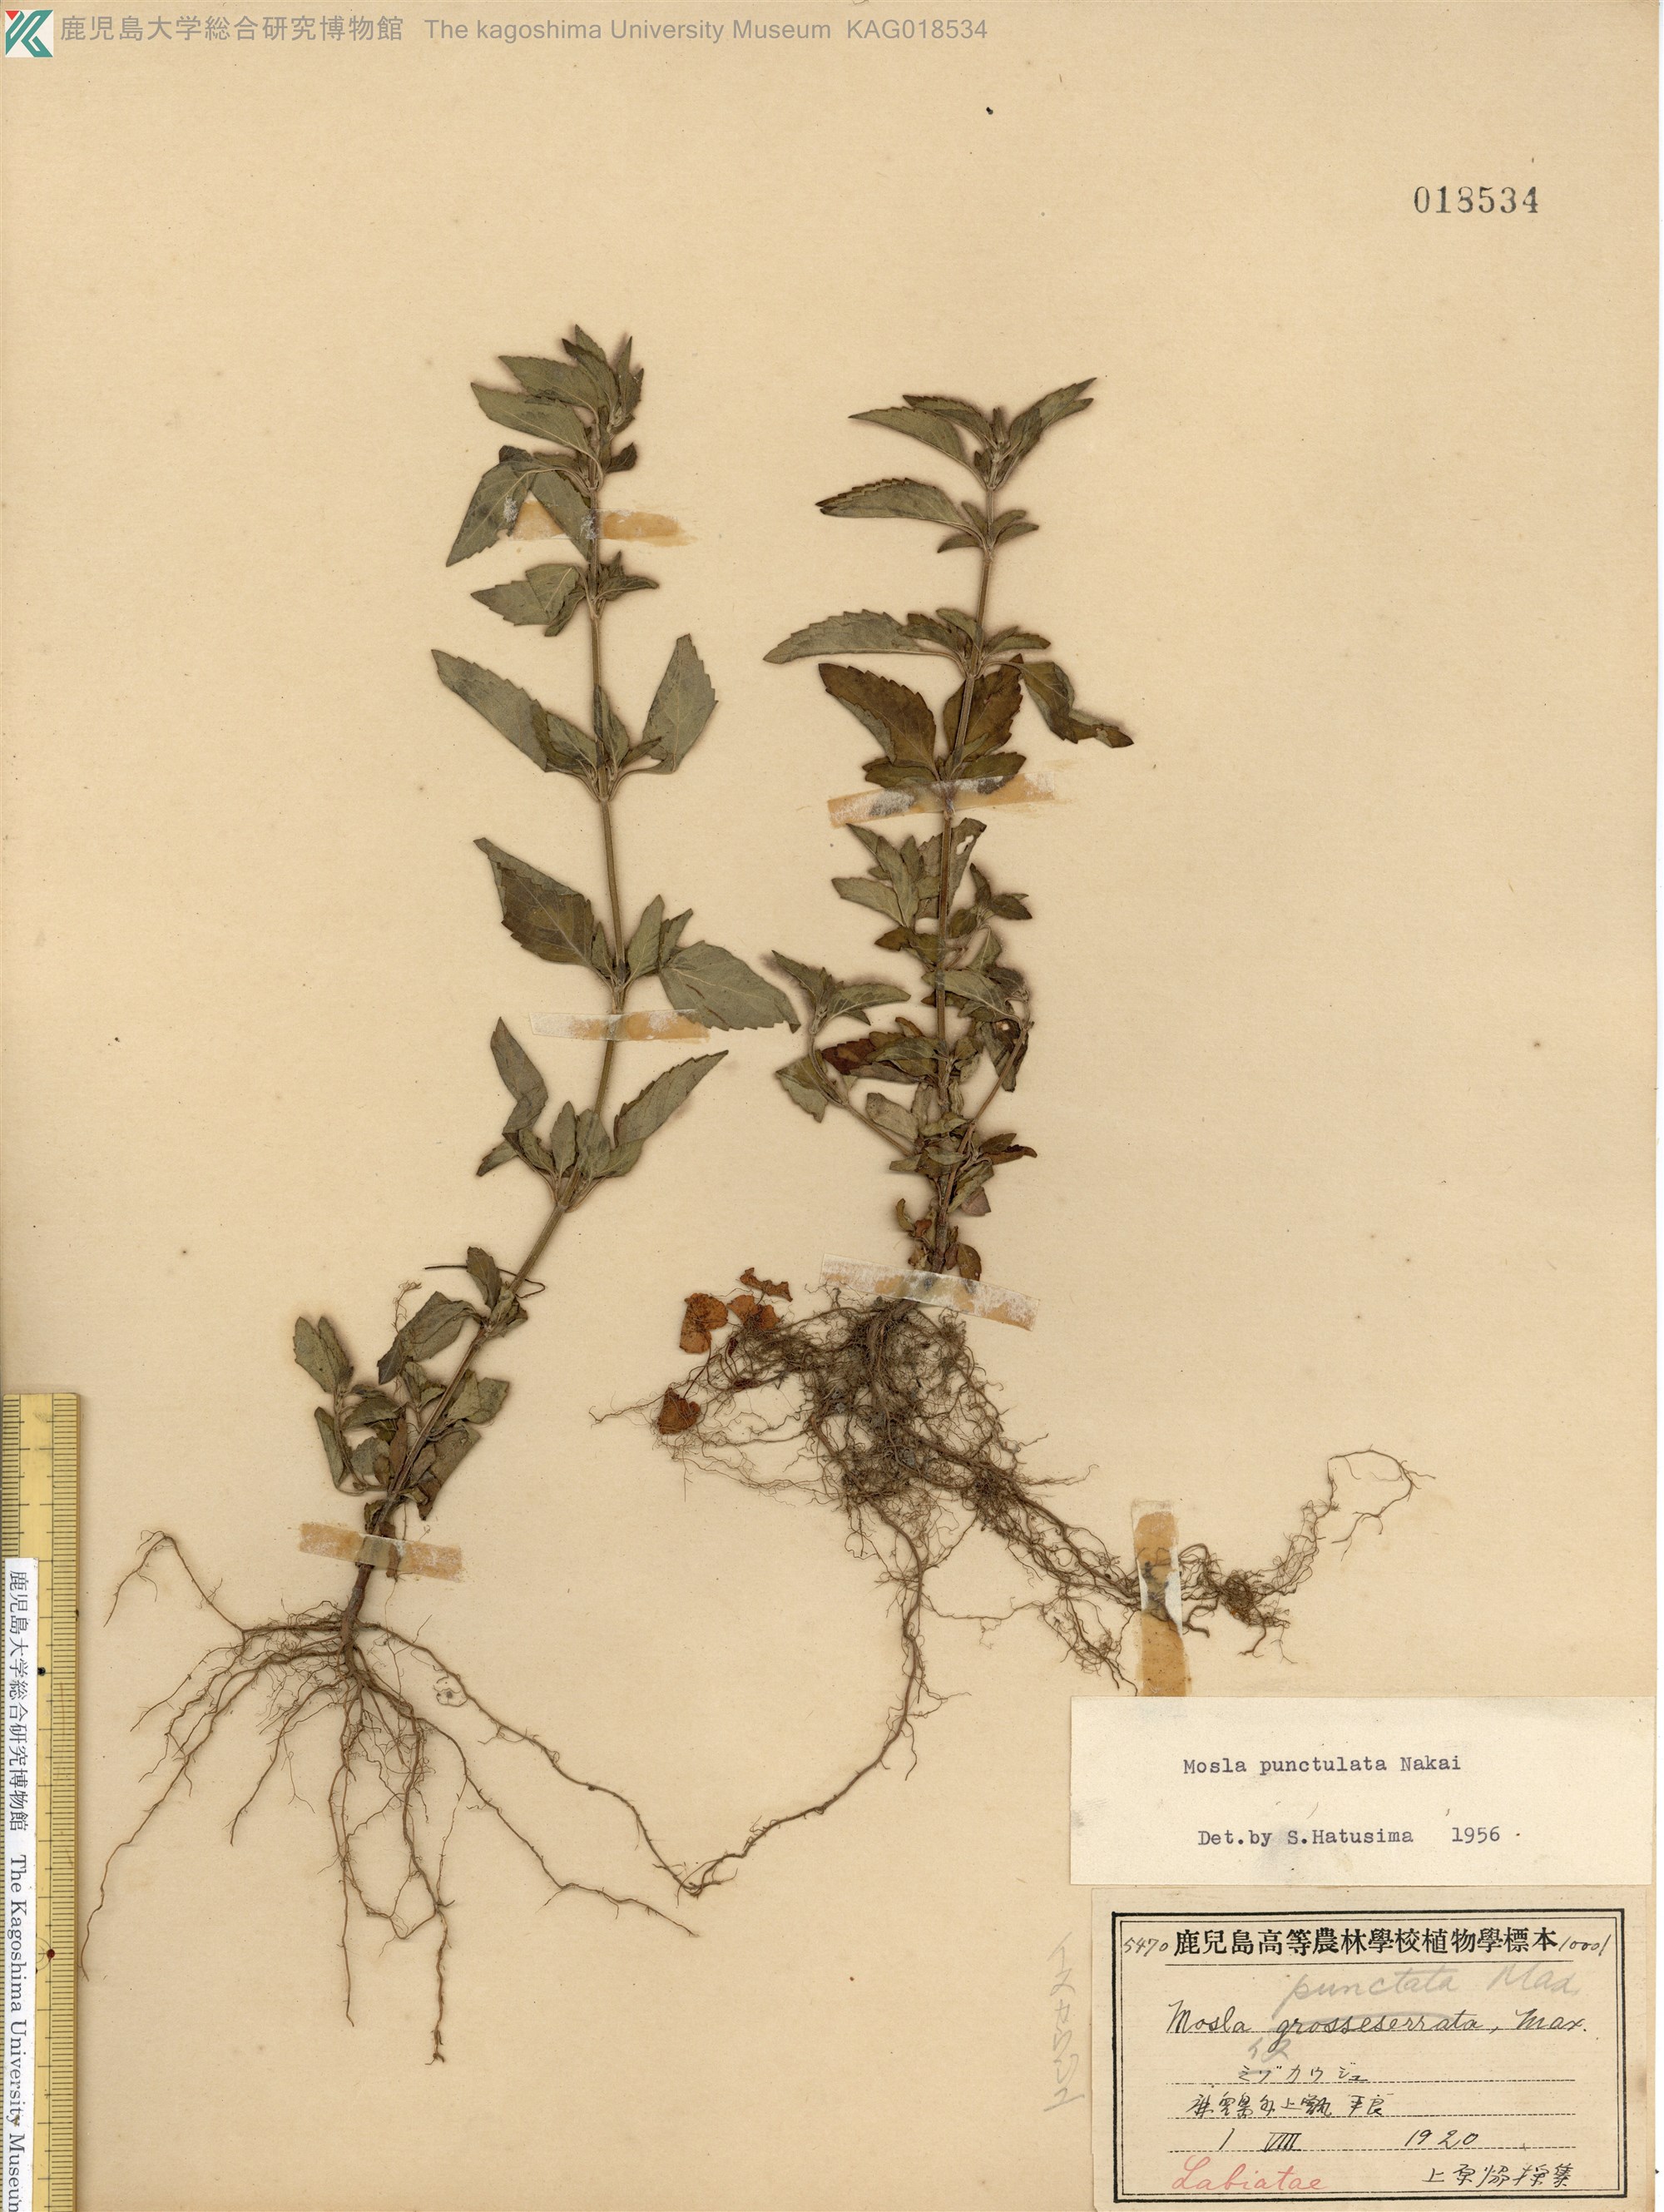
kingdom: Plantae
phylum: Tracheophyta
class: Magnoliopsida
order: Lamiales
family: Lamiaceae
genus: Mosla
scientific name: Mosla scabra
